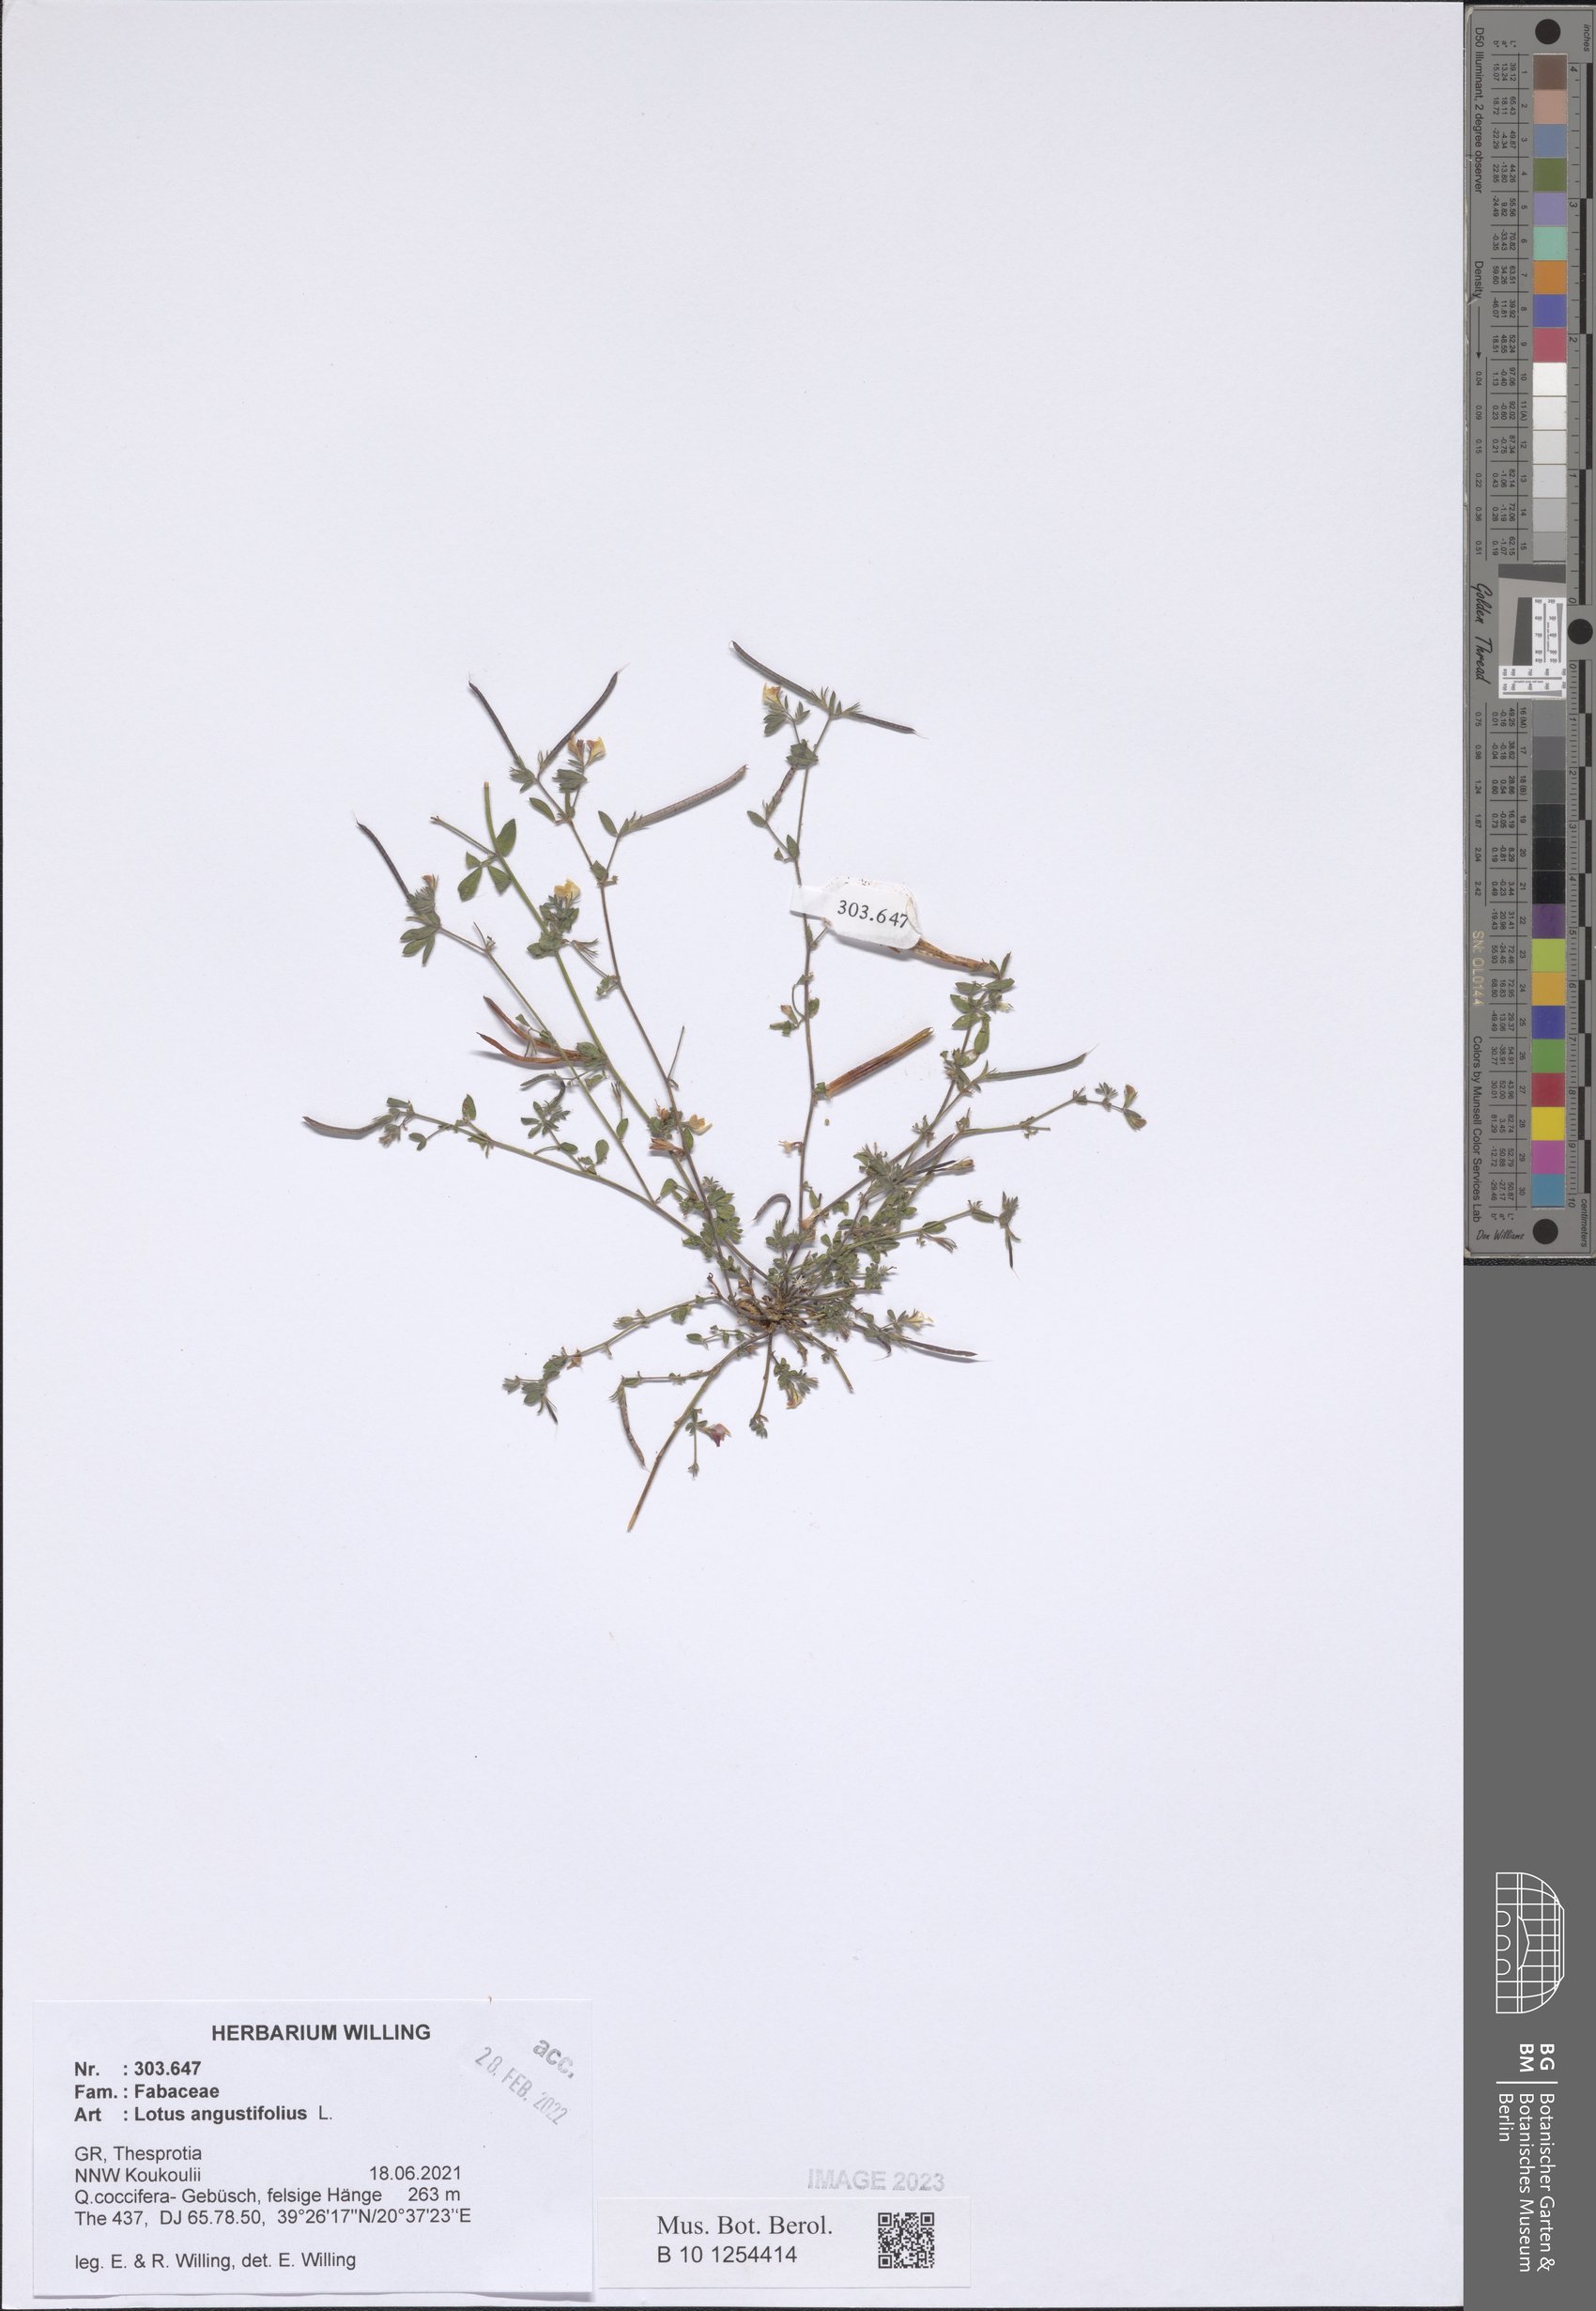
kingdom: Plantae
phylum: Tracheophyta
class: Magnoliopsida
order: Fabales
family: Fabaceae
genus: Lotus
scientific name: Lotus angustissimus
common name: Slender bird's-foot trefoil
